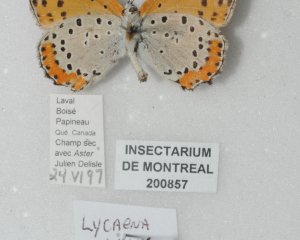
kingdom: Animalia
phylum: Arthropoda
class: Insecta
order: Lepidoptera
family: Sesiidae
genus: Sesia
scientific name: Sesia Lycaena hyllus
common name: Bronze Copper
